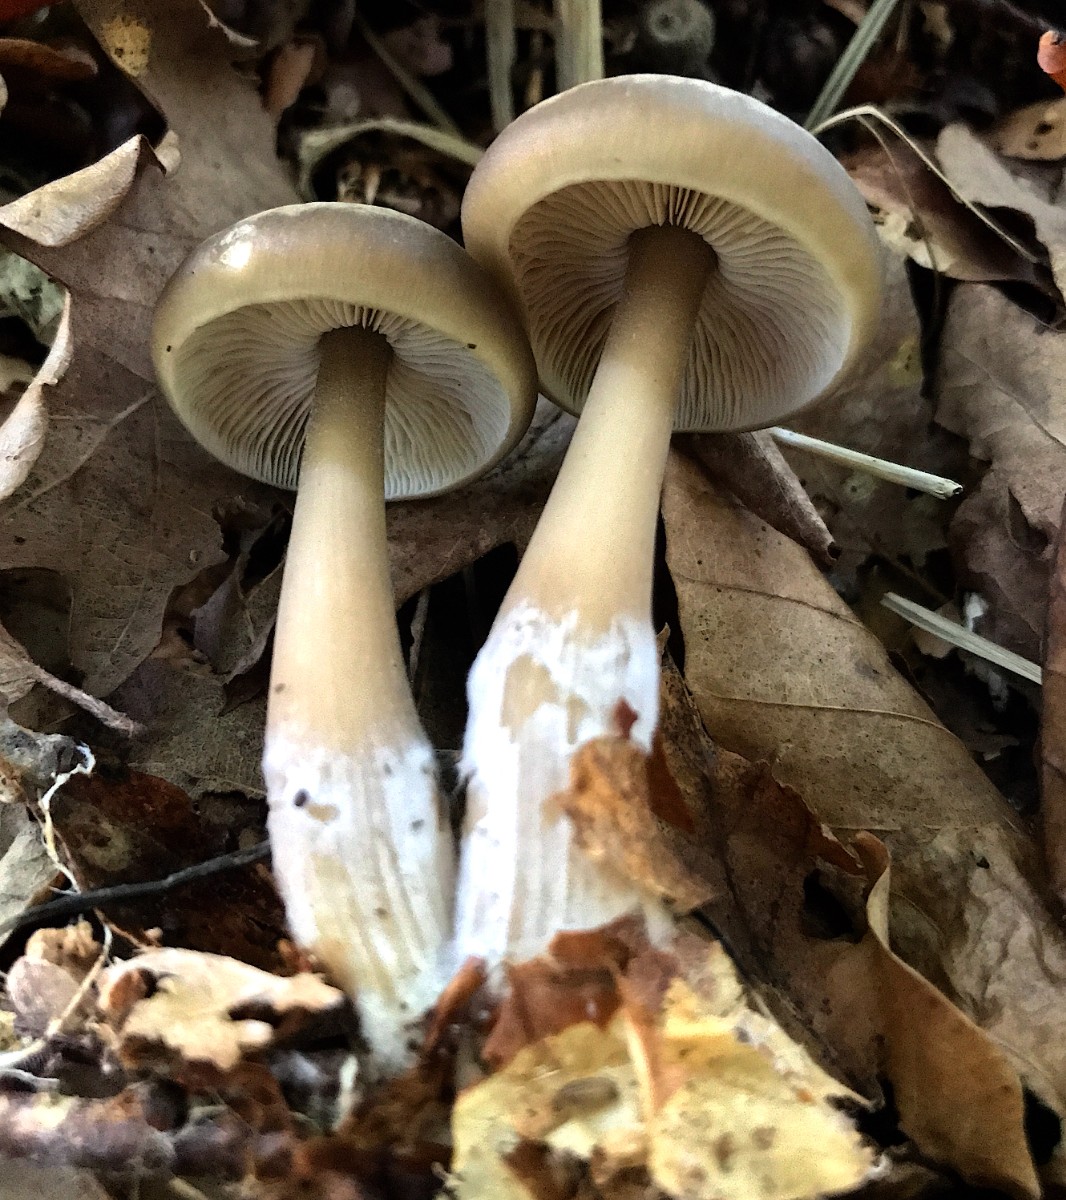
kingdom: Fungi
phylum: Basidiomycota
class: Agaricomycetes
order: Agaricales
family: Omphalotaceae
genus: Rhodocollybia
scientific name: Rhodocollybia asema
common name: horngrå fladhat
